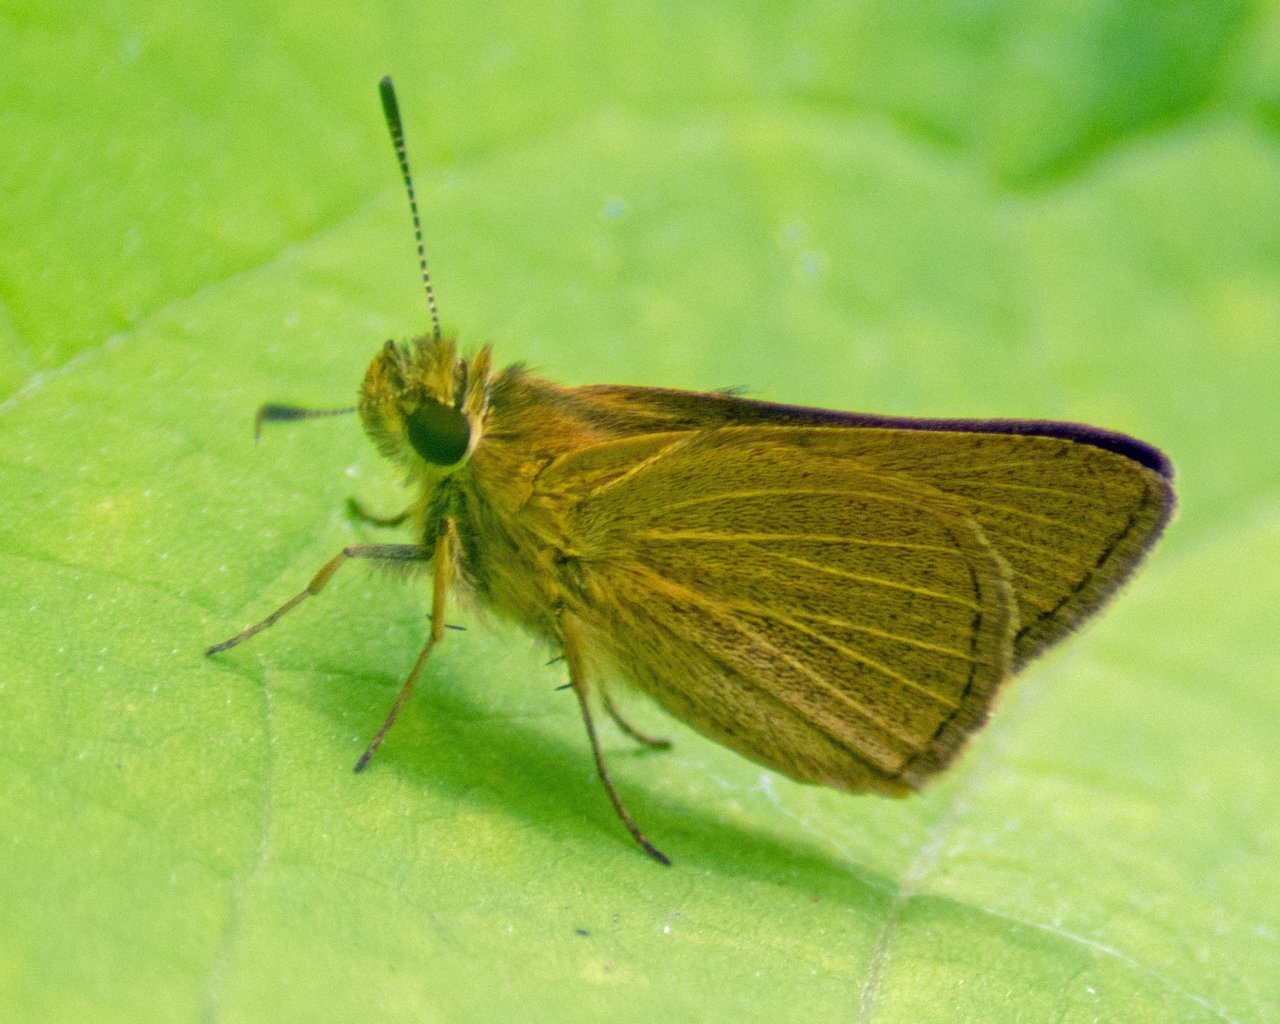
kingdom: Animalia
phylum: Arthropoda
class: Insecta
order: Lepidoptera
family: Hesperiidae
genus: Nastra
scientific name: Nastra lherminier
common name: Swarthy Skipper
